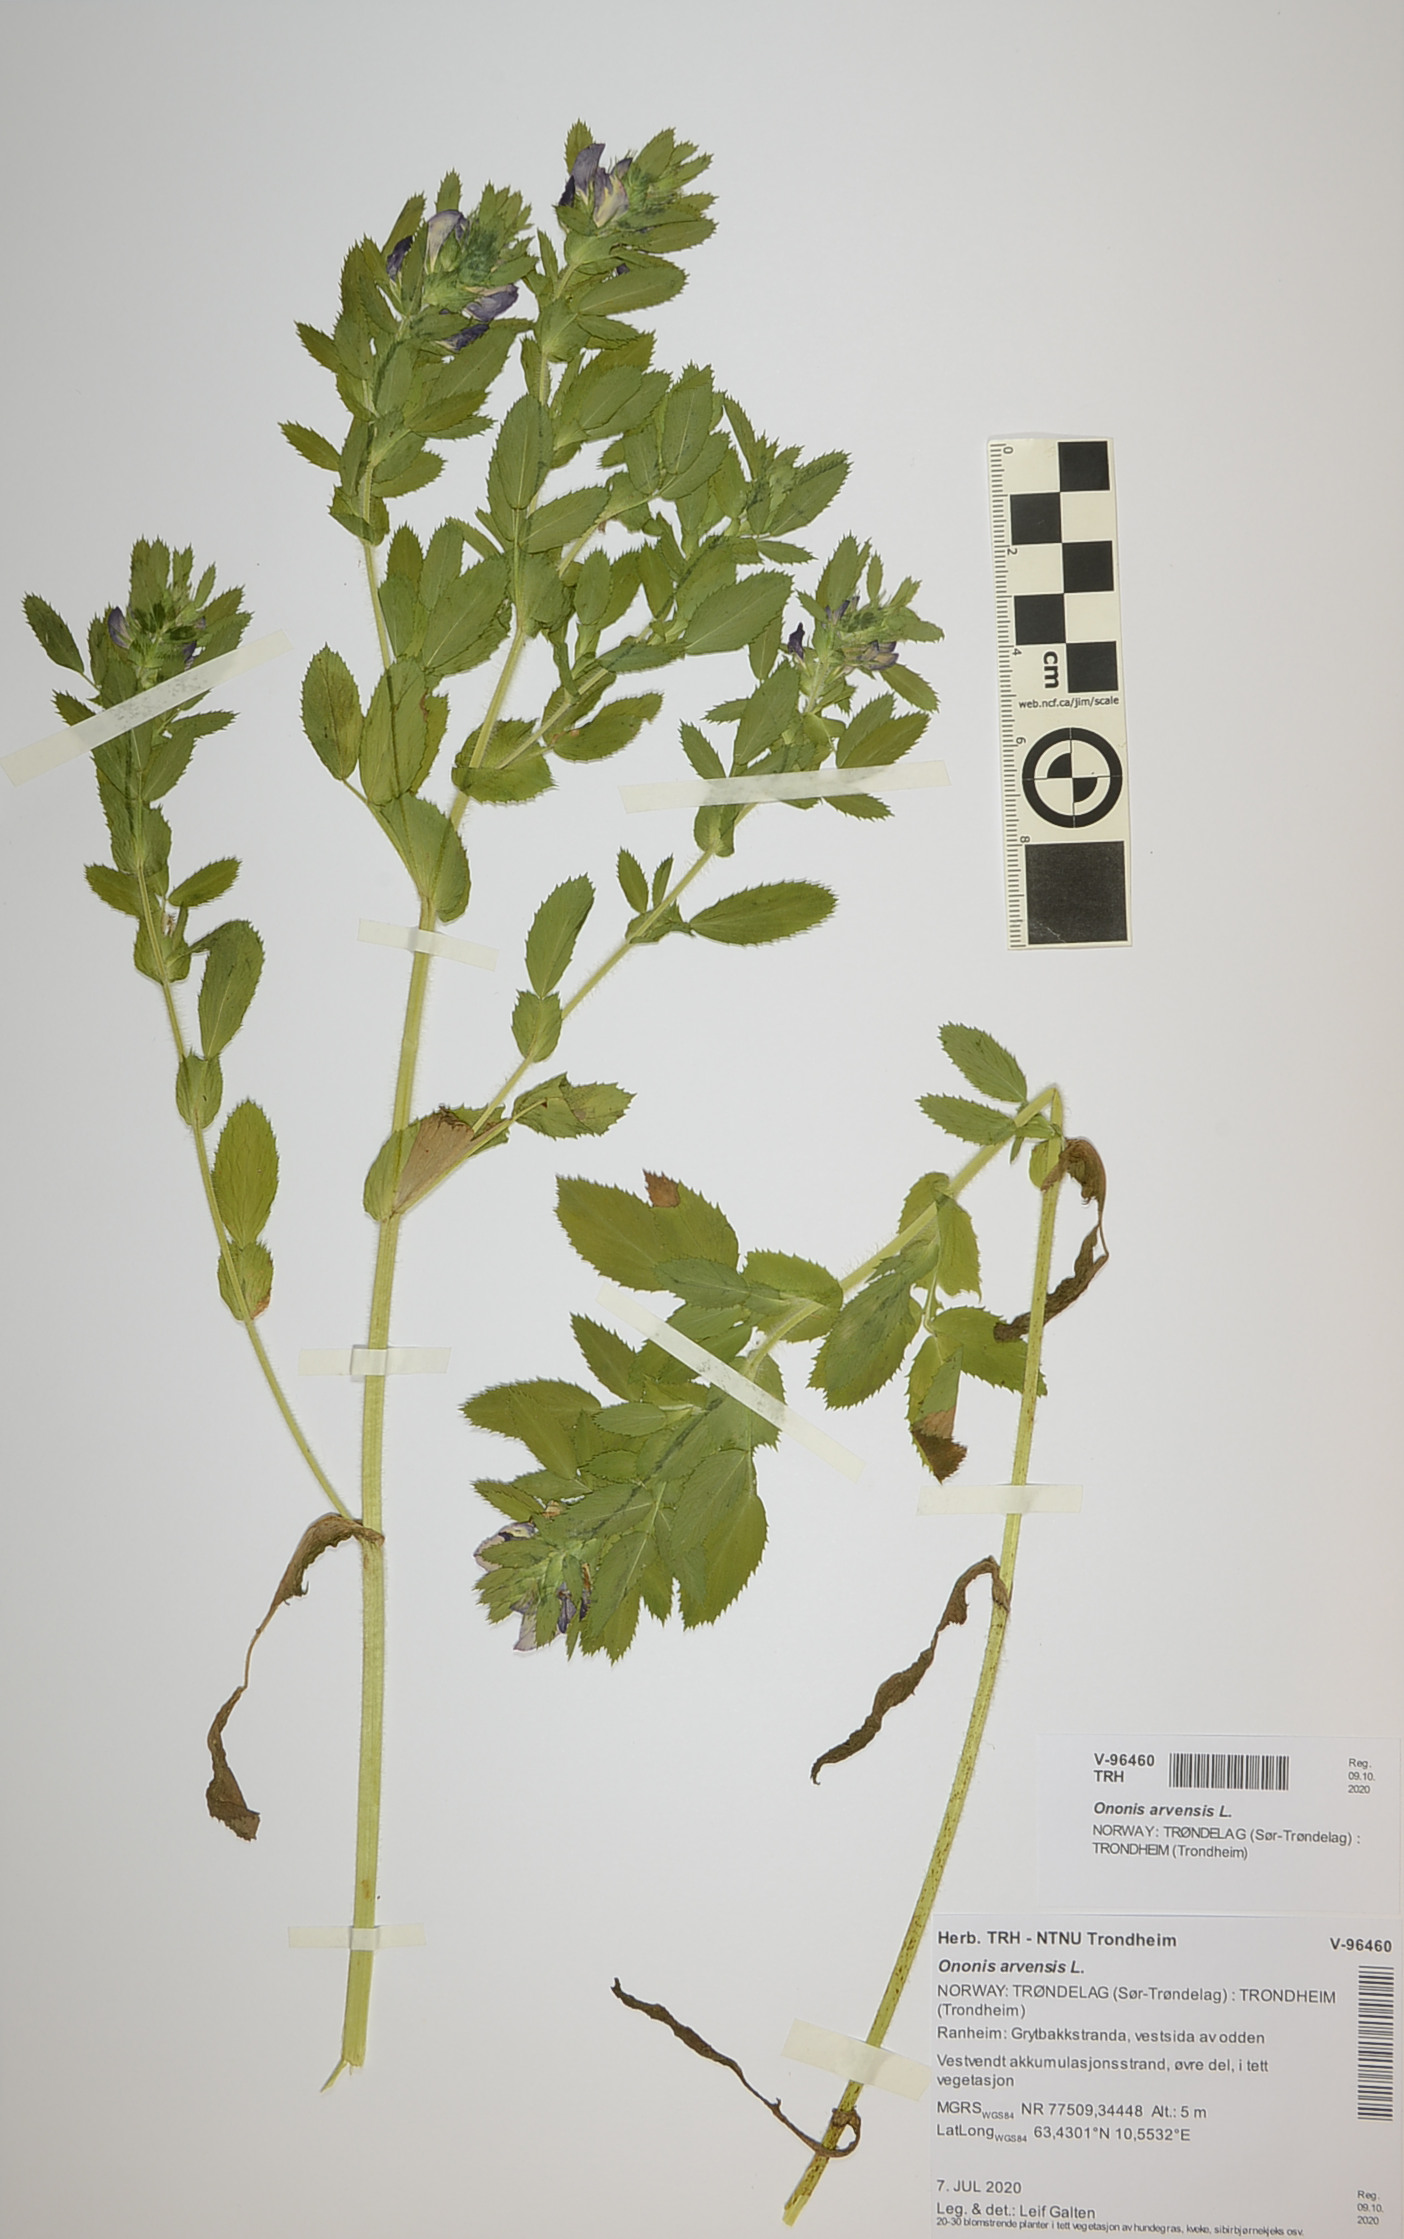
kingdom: Plantae
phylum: Tracheophyta
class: Magnoliopsida
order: Fabales
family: Fabaceae
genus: Ononis
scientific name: Ononis arvensis
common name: Field restharrow
